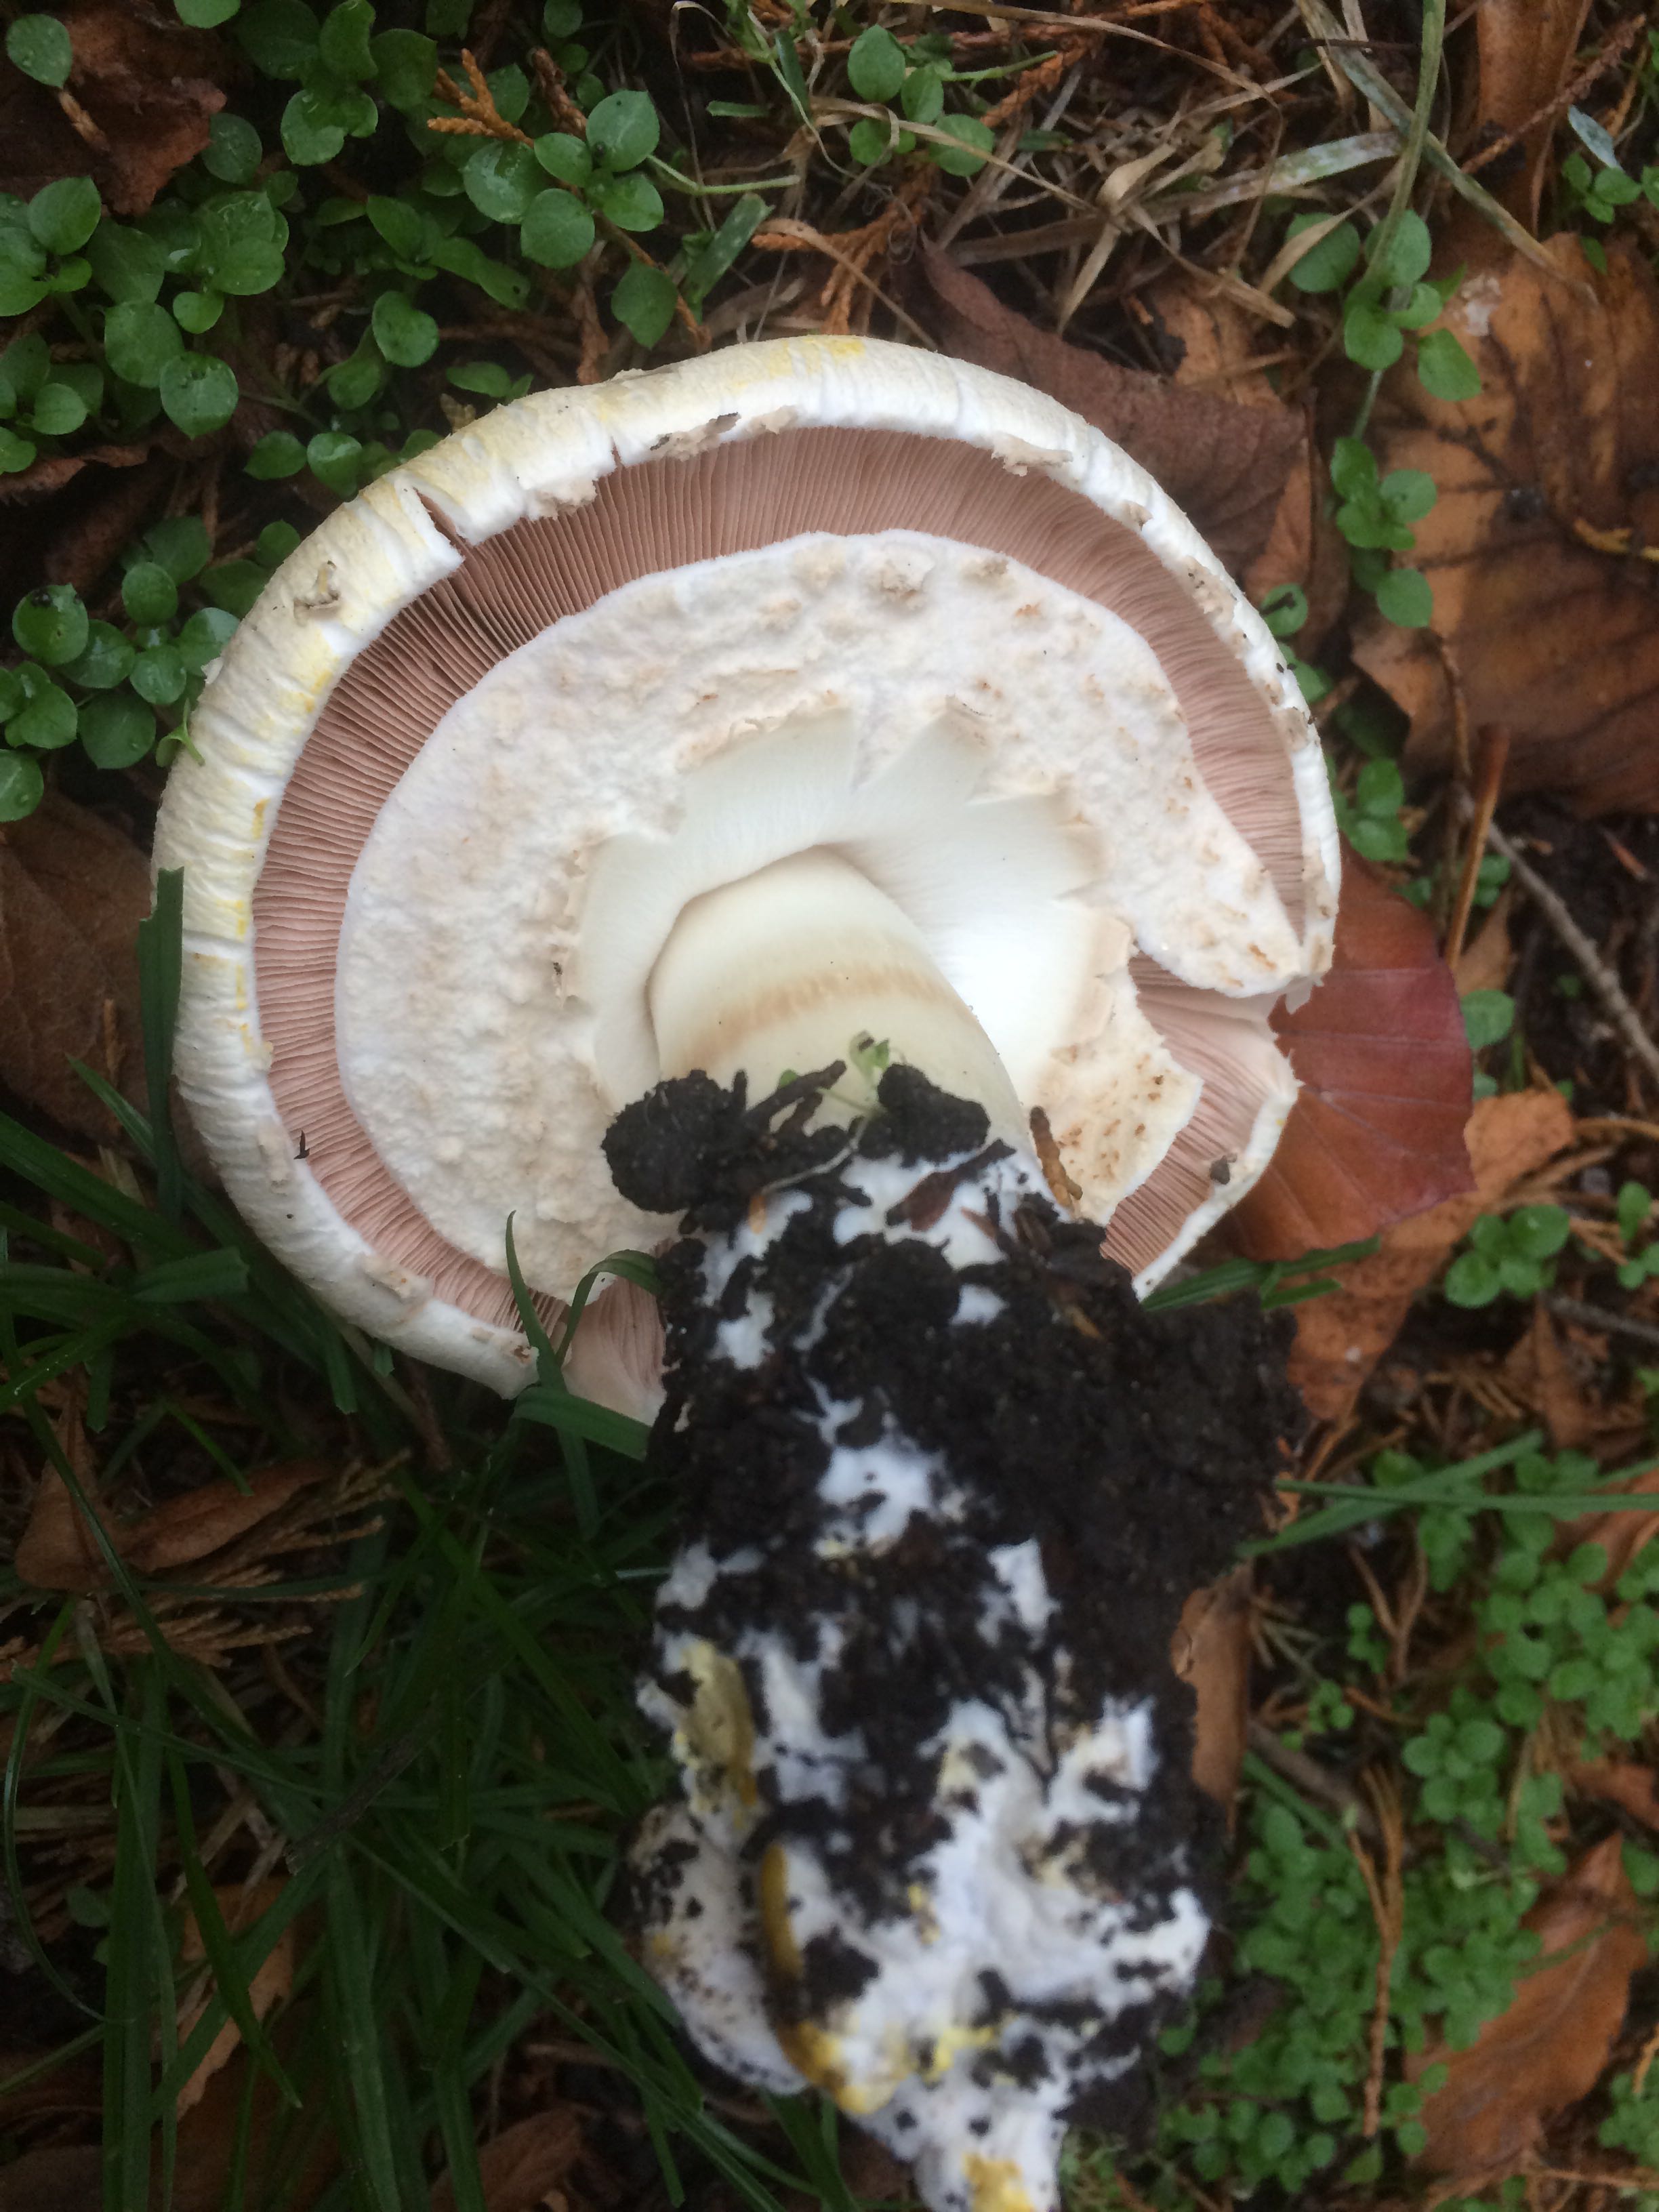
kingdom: Fungi
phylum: Basidiomycota
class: Agaricomycetes
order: Agaricales
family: Agaricaceae
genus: Agaricus
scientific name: Agaricus xanthodermus
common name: karbol-champignon
